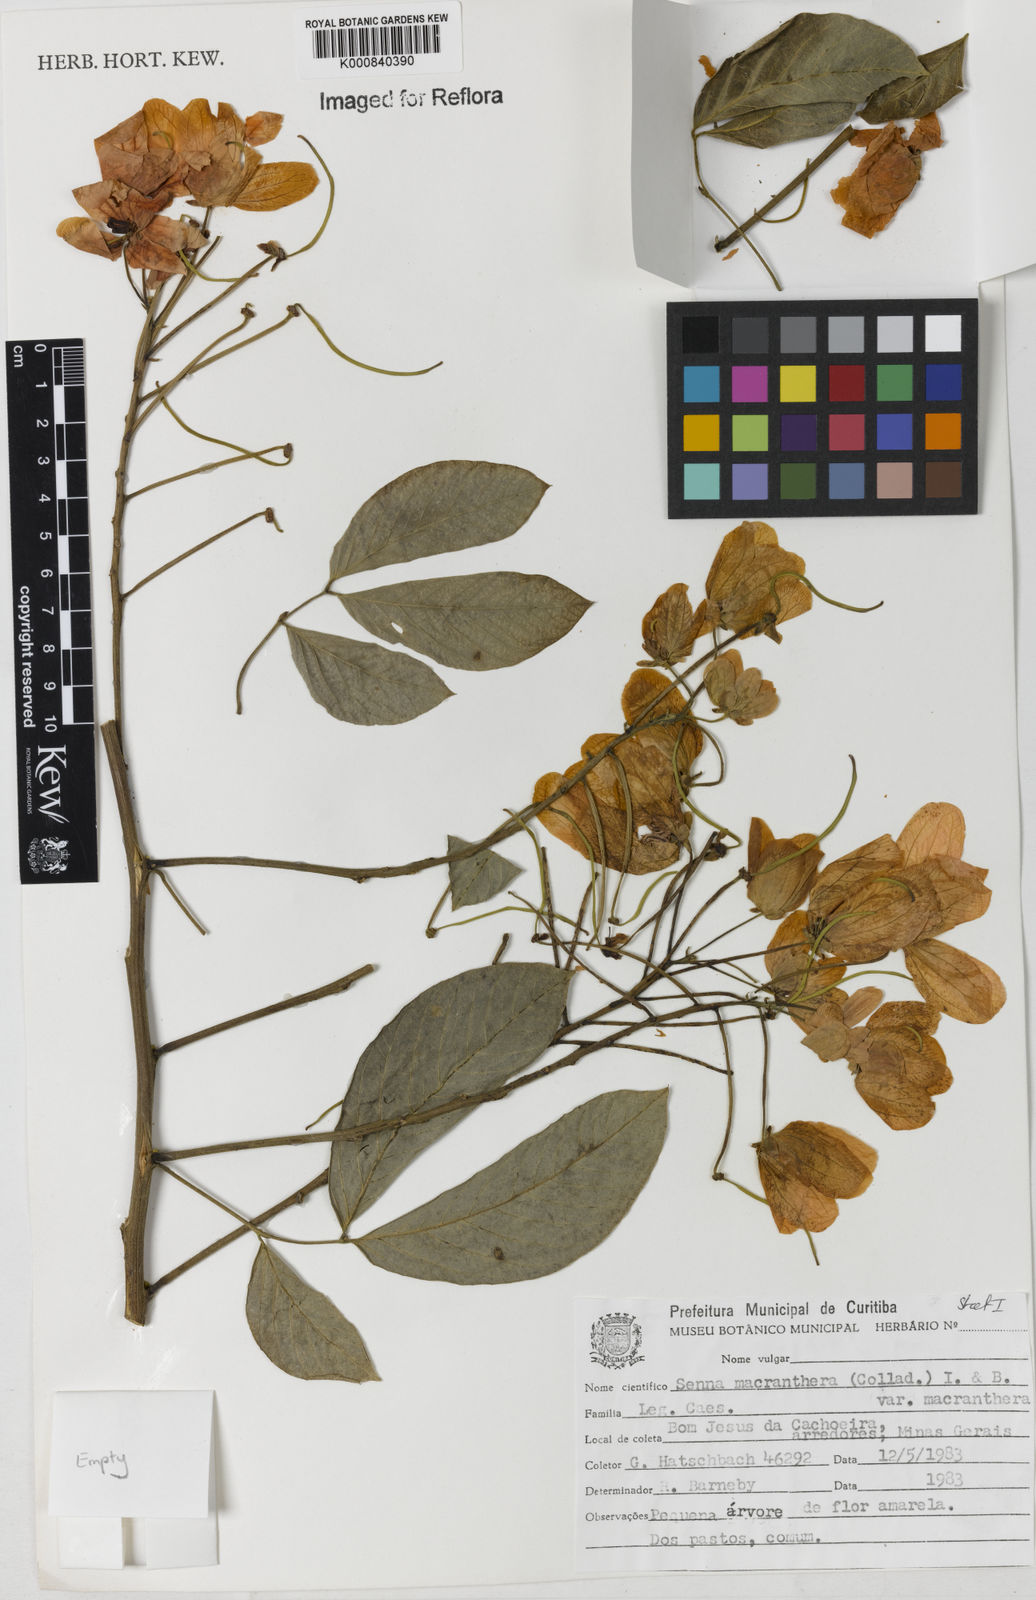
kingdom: Plantae
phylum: Tracheophyta
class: Magnoliopsida
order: Fabales
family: Fabaceae
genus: Senna
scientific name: Senna macranthera
